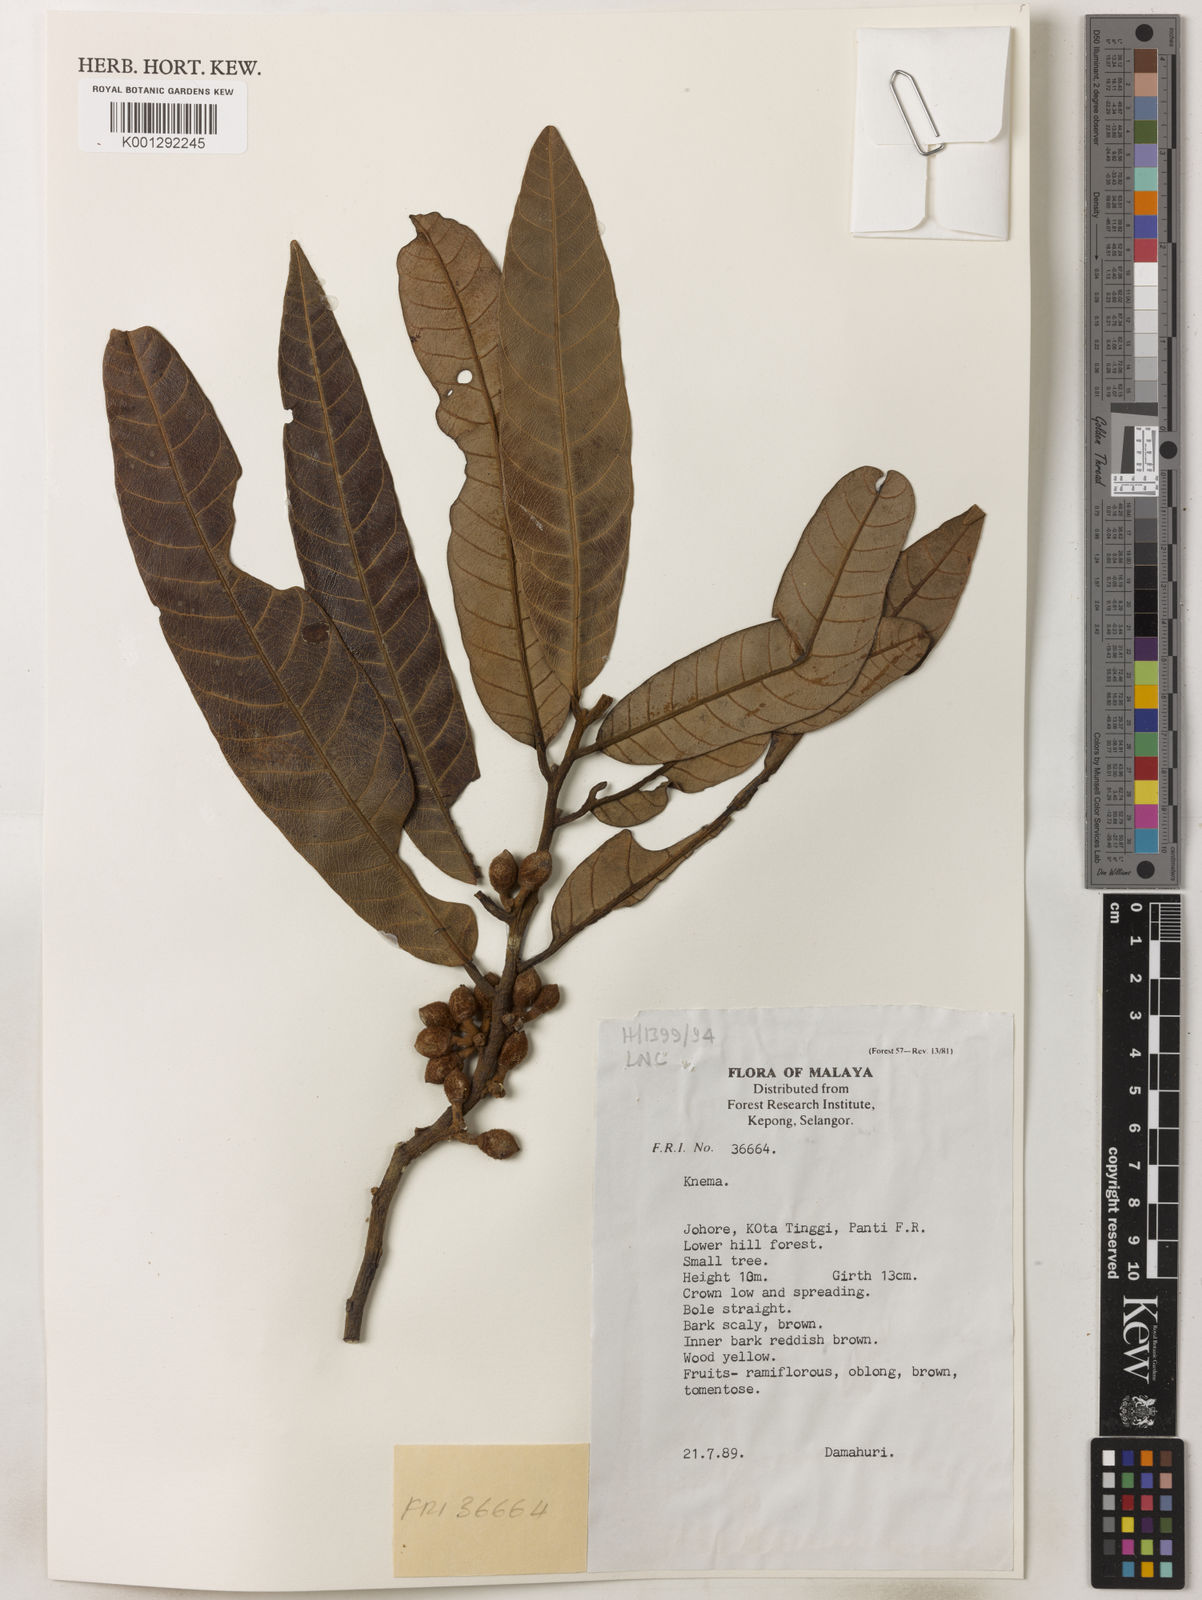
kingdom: Plantae
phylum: Tracheophyta
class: Magnoliopsida
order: Magnoliales
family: Myristicaceae
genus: Knema
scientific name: Knema
